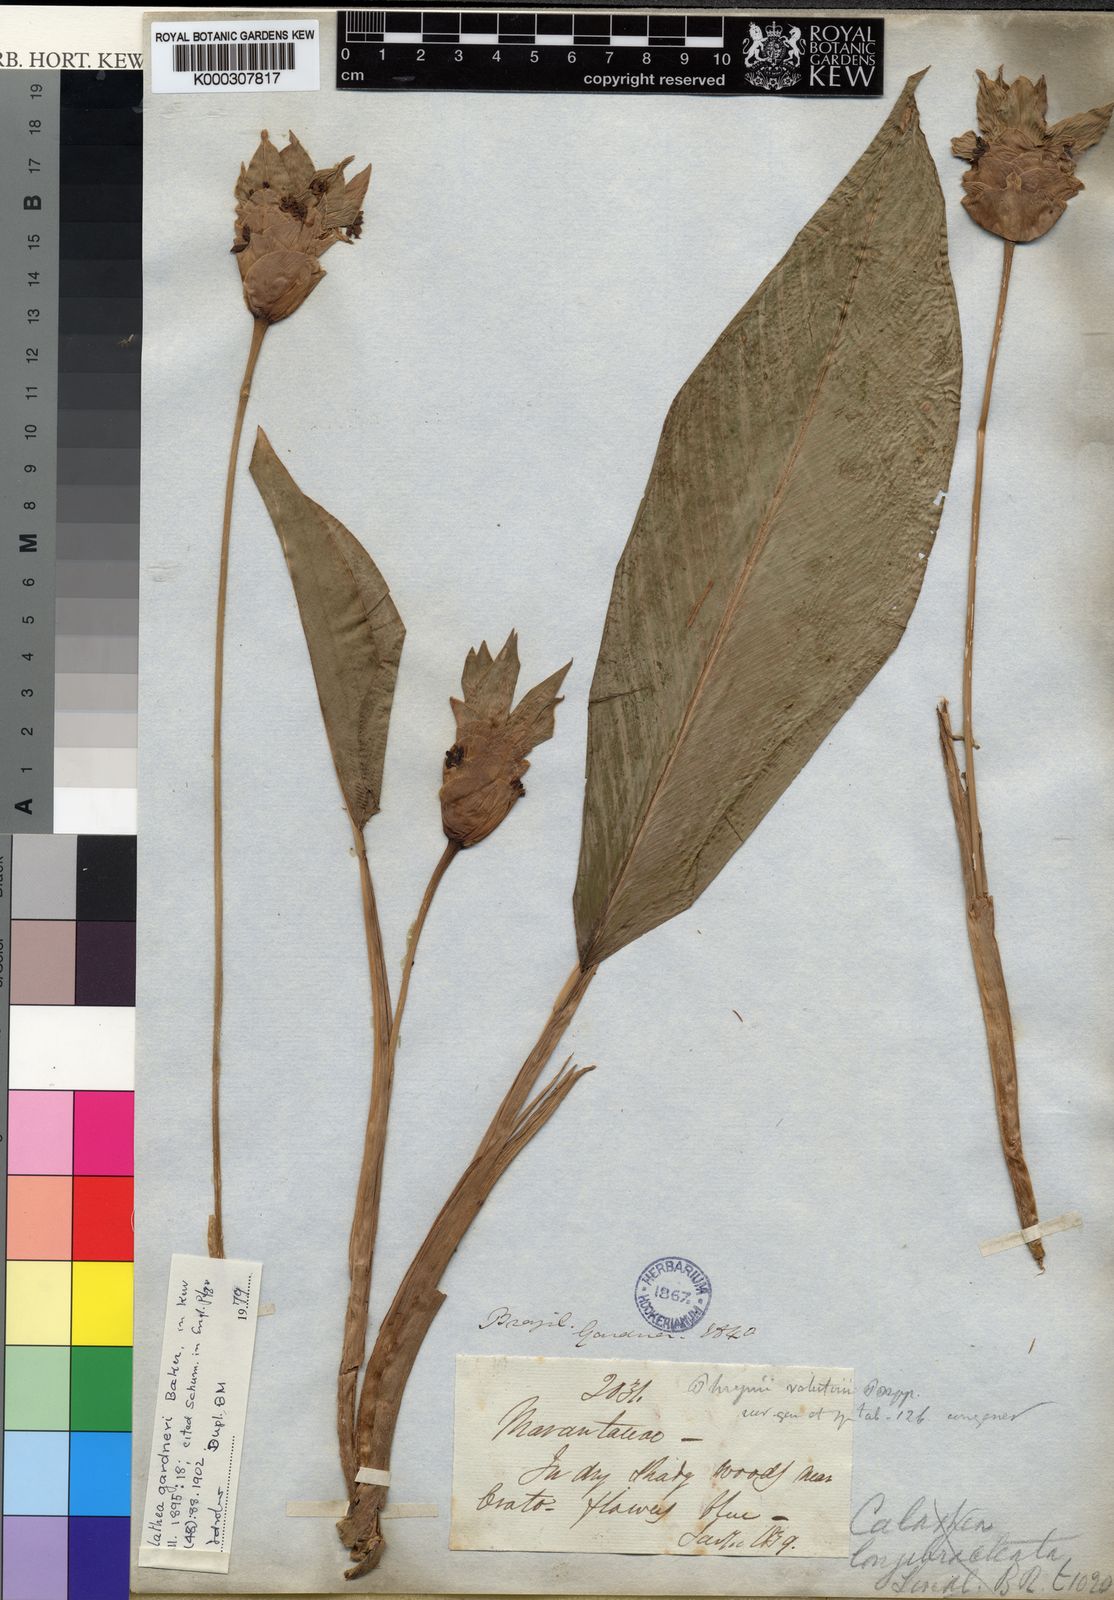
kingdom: Plantae
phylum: Tracheophyta
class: Liliopsida
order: Zingiberales
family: Marantaceae
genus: Goeppertia
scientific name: Goeppertia gardneri
